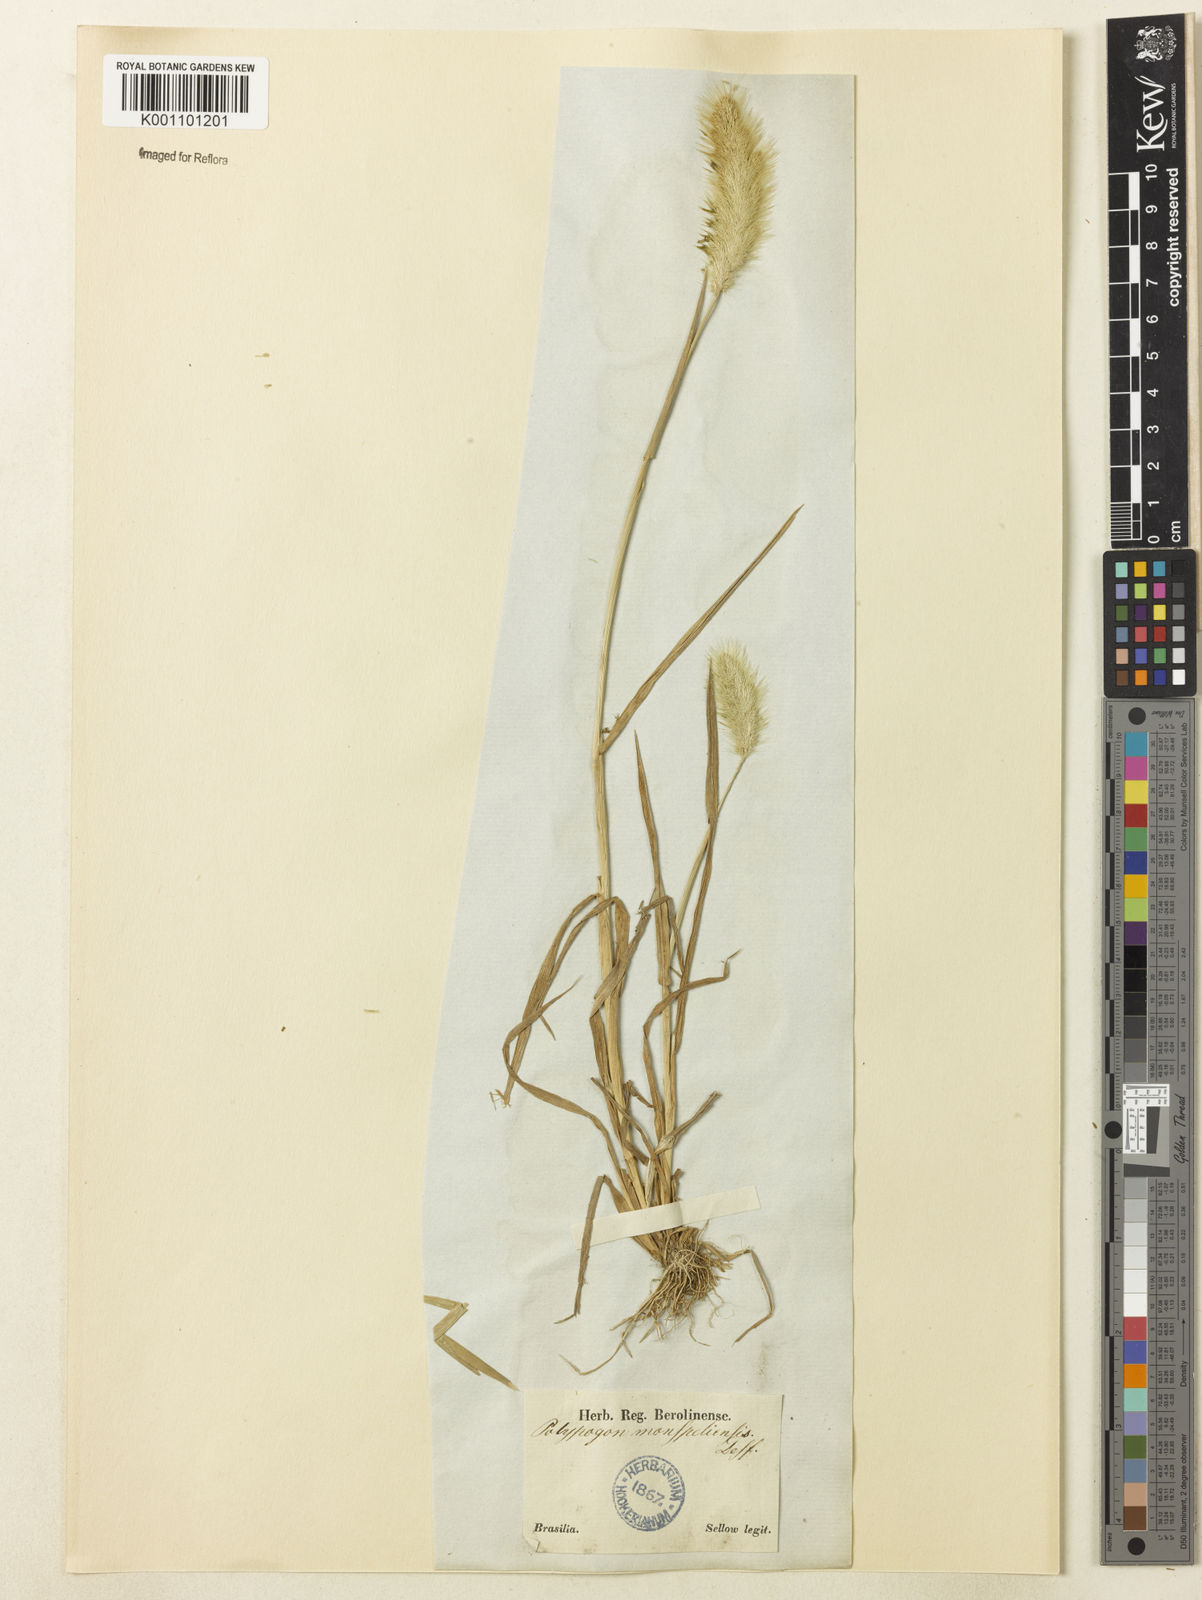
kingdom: Plantae
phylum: Tracheophyta
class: Liliopsida
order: Poales
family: Poaceae
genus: Polypogon
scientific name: Polypogon monspeliensis
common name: Annual rabbitsfoot grass
